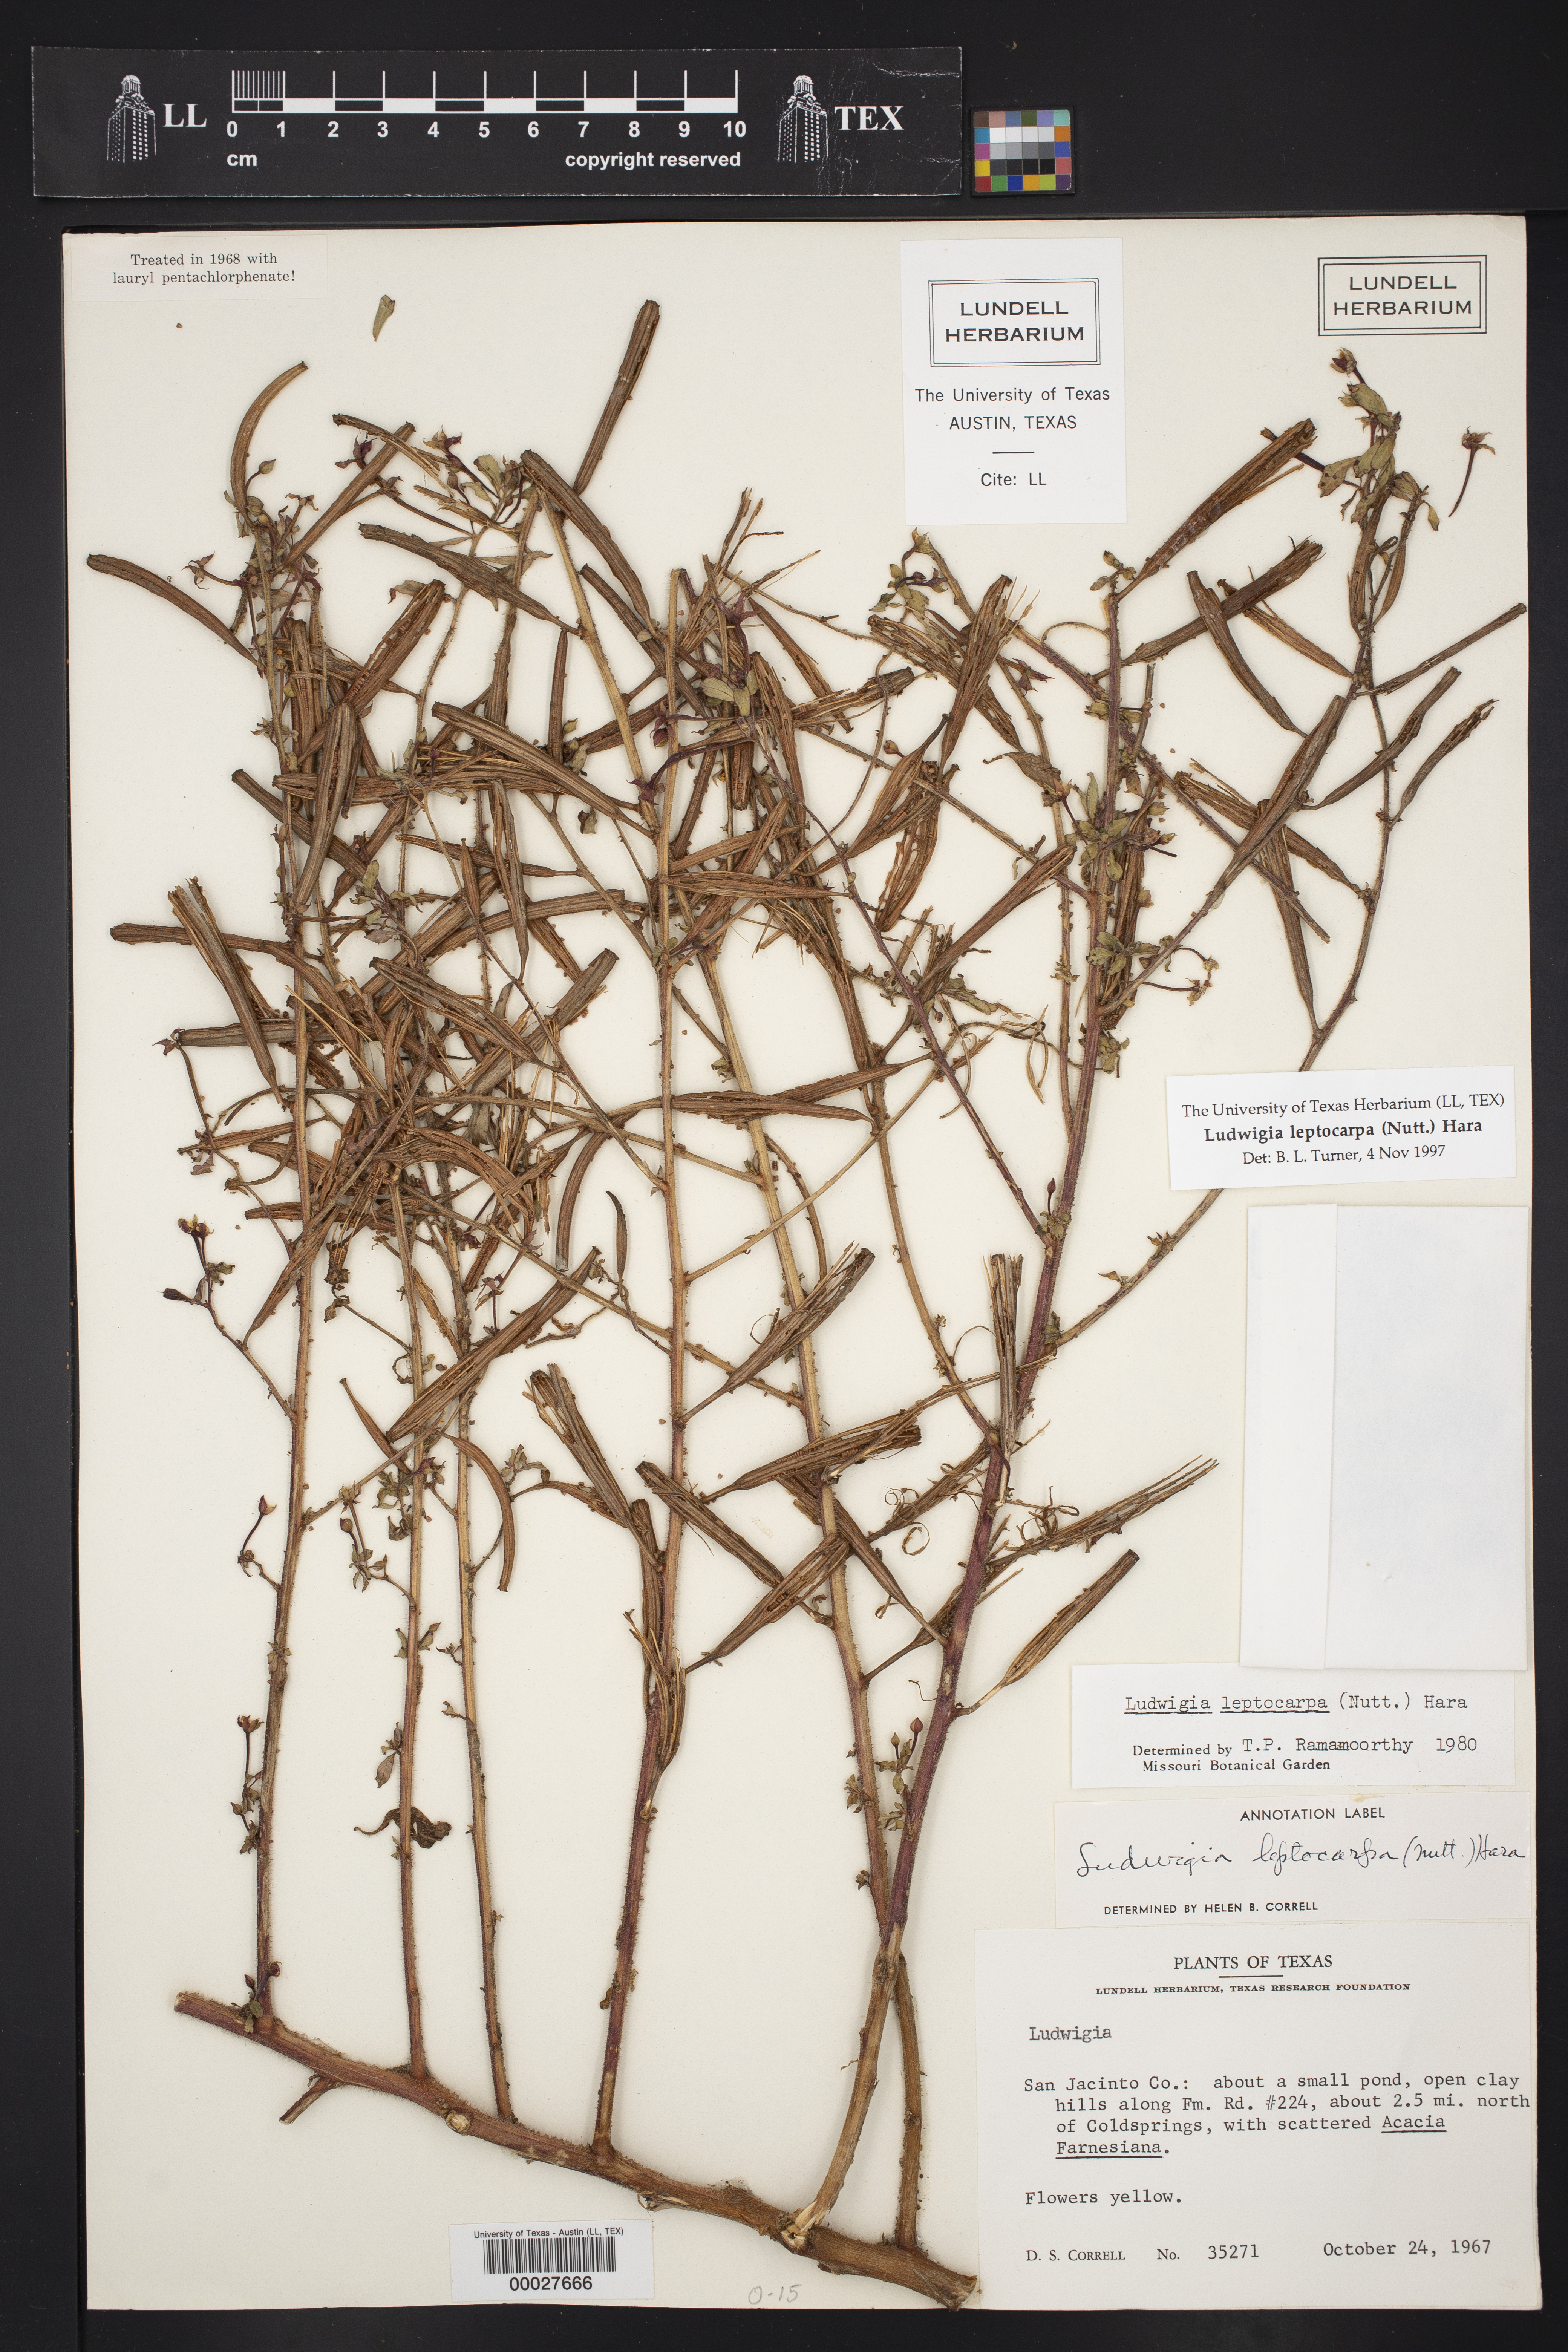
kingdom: Plantae
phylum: Tracheophyta
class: Magnoliopsida
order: Myrtales
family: Onagraceae
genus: Ludwigia
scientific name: Ludwigia leptocarpa
